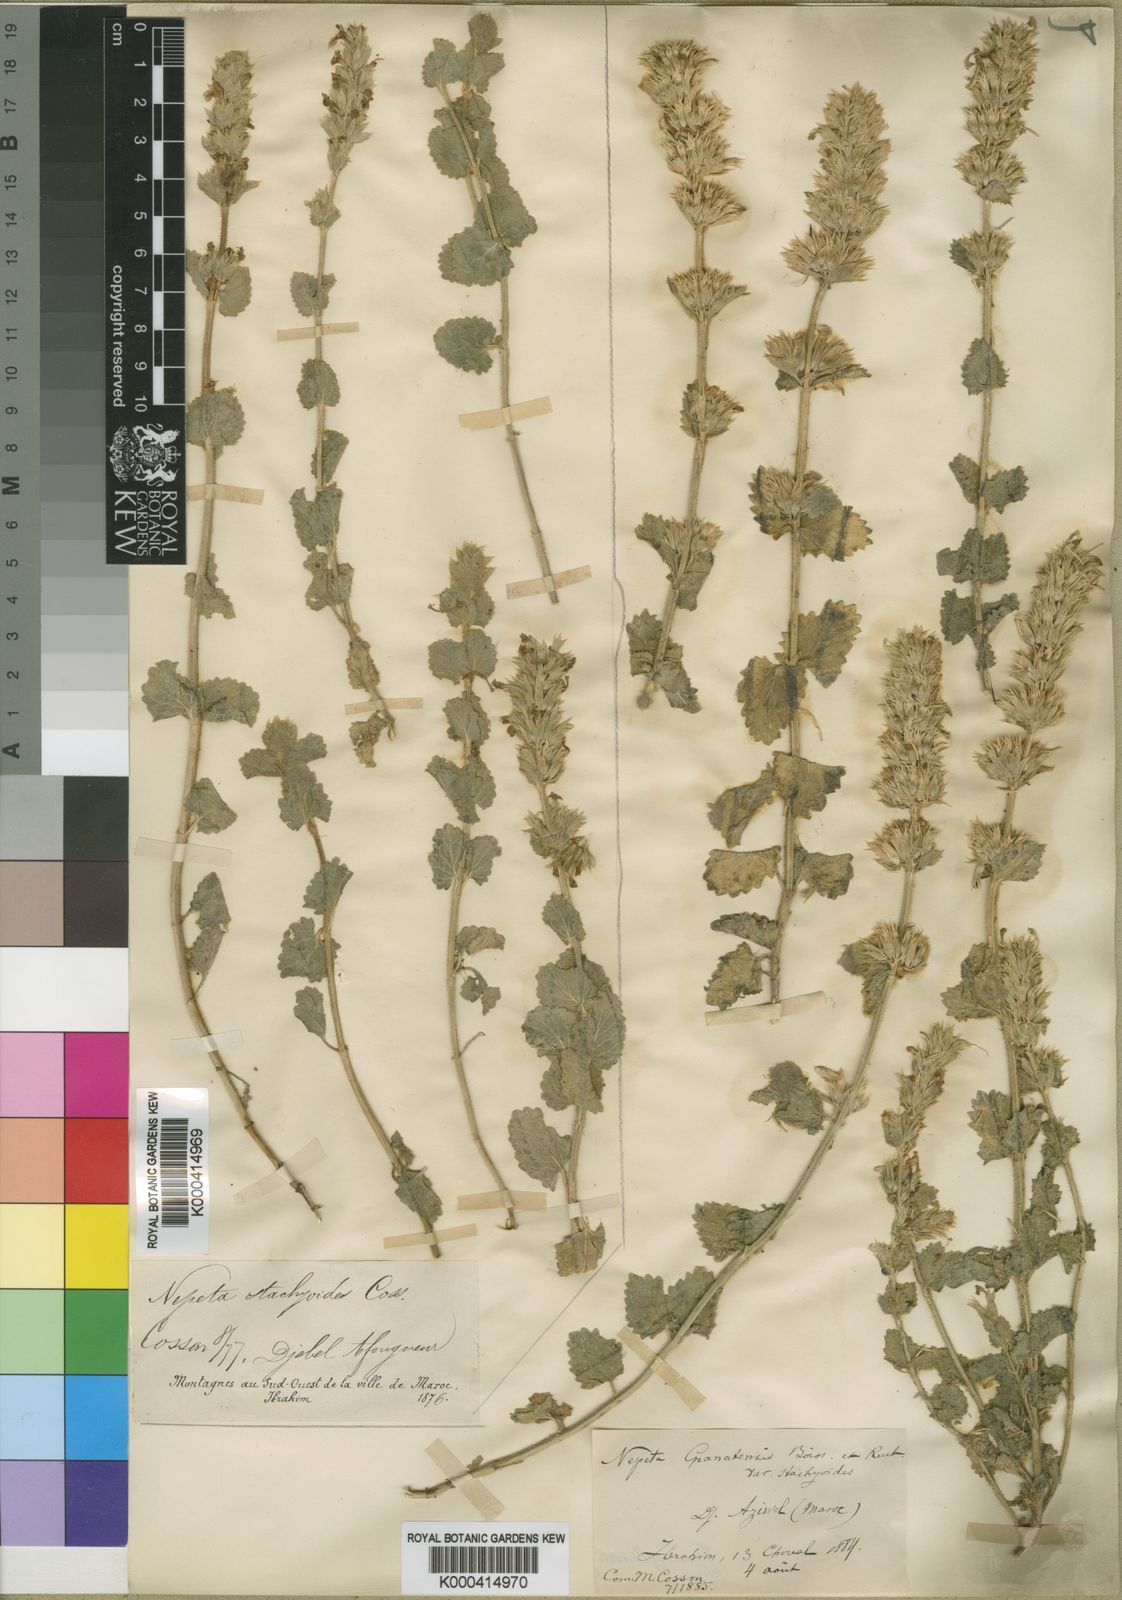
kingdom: Plantae
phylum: Tracheophyta
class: Magnoliopsida
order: Lamiales
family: Lamiaceae
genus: Nepeta
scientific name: Nepeta
